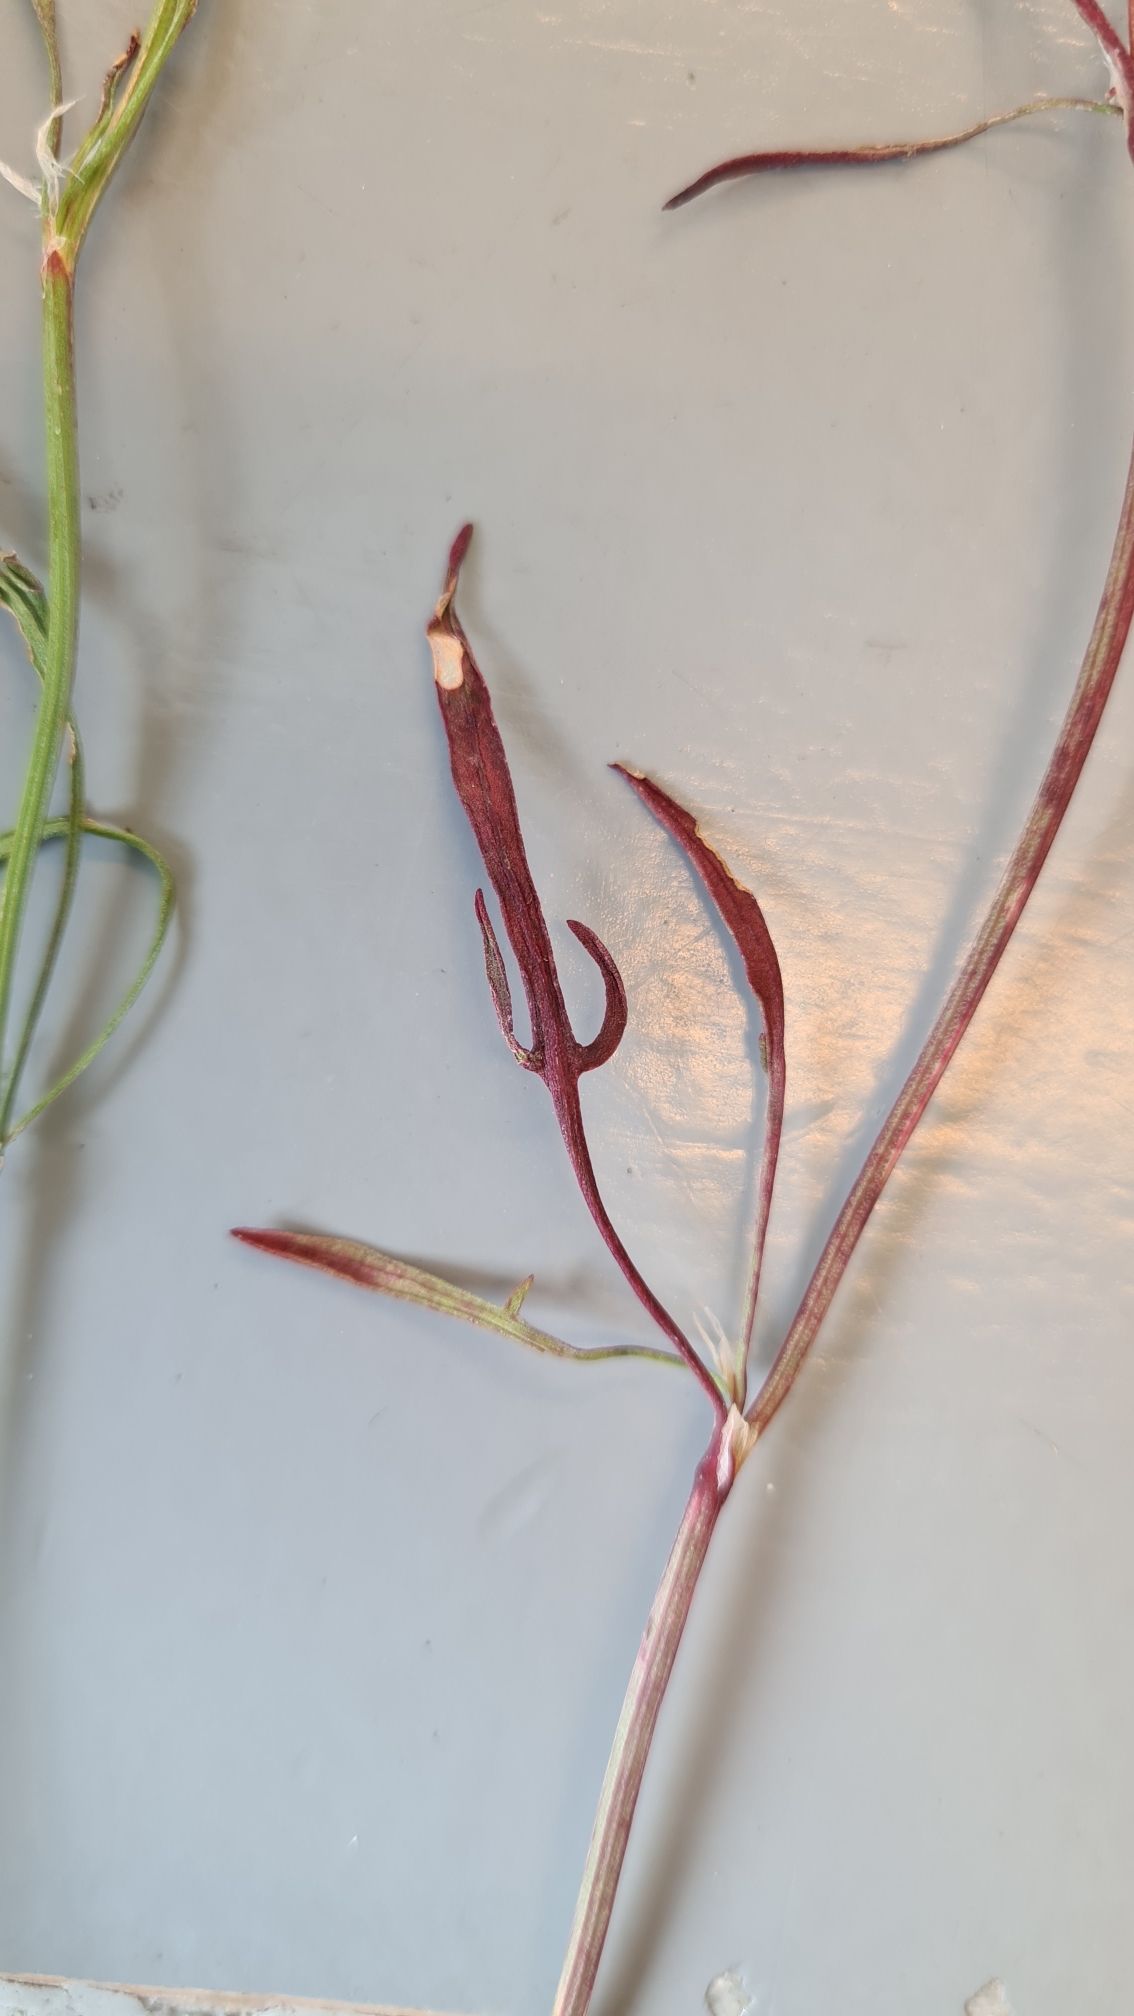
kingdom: Plantae
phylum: Tracheophyta
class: Magnoliopsida
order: Caryophyllales
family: Polygonaceae
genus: Rumex
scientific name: Rumex acetosella
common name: Rødknæ
